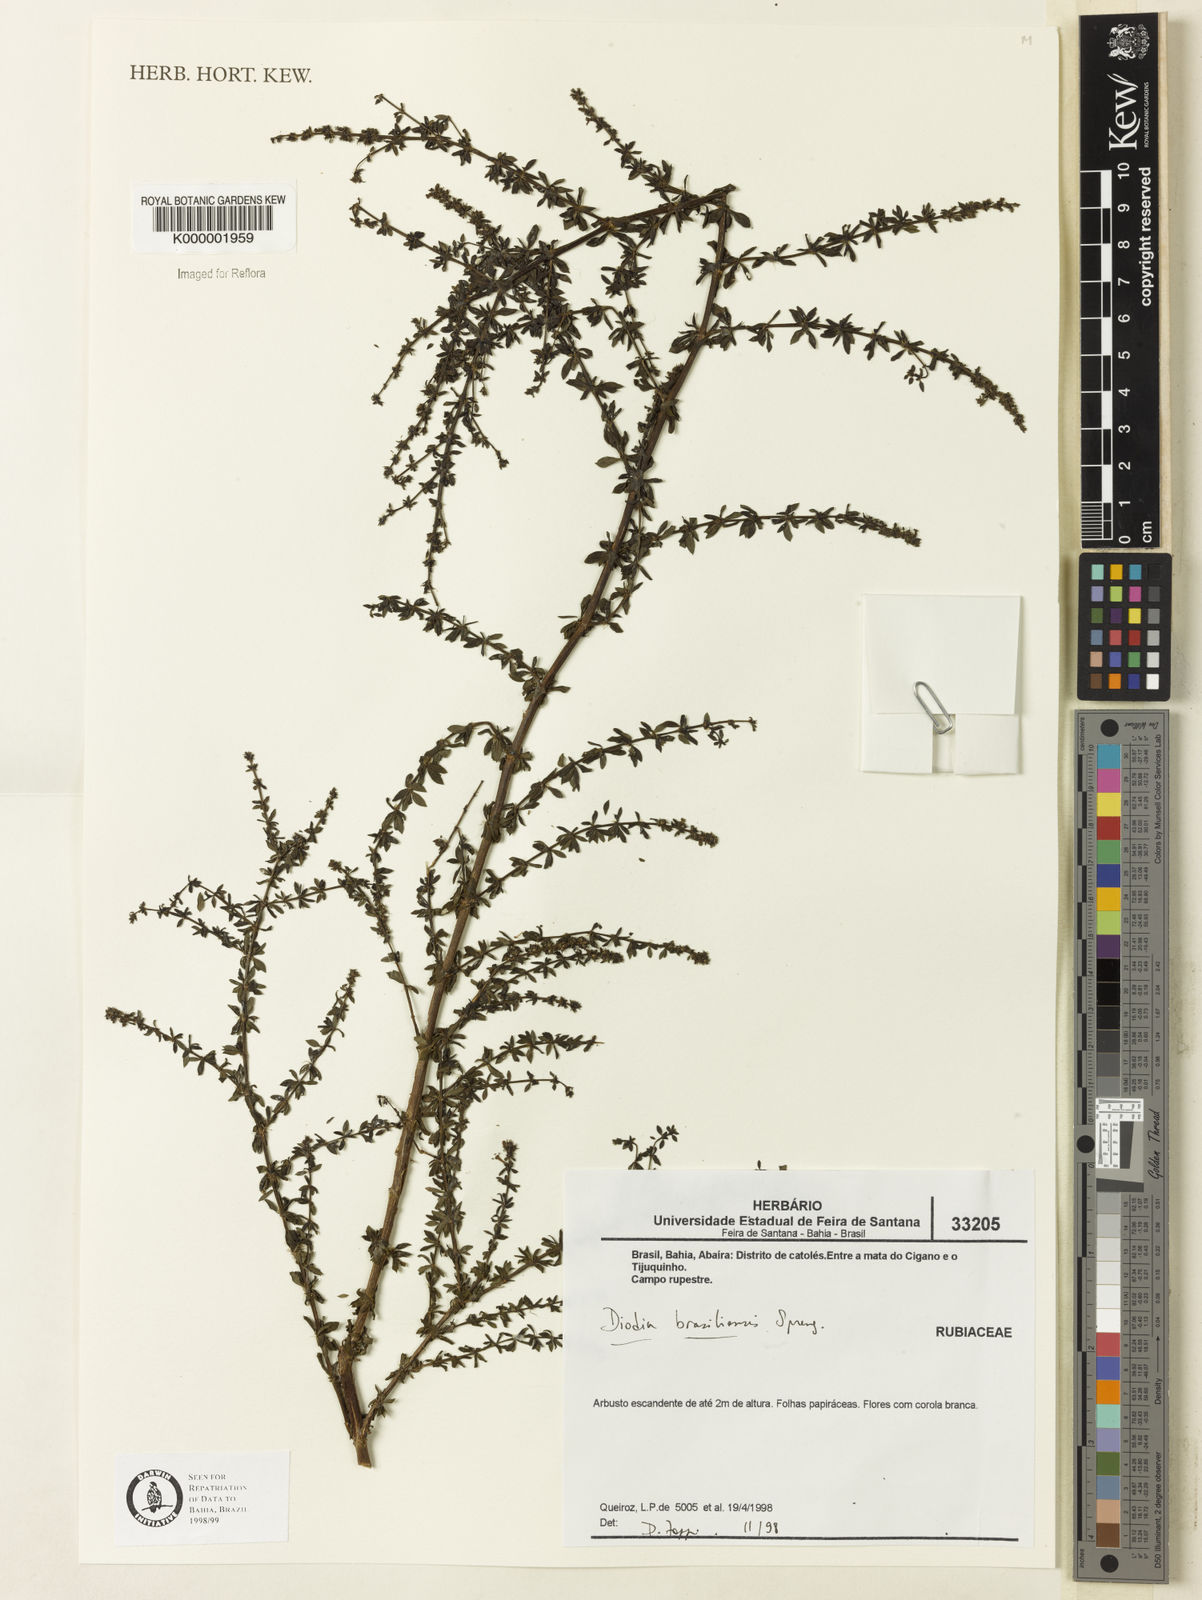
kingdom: Plantae
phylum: Tracheophyta
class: Magnoliopsida
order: Gentianales
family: Rubiaceae
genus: Galianthe
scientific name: Galianthe brasiliensis
